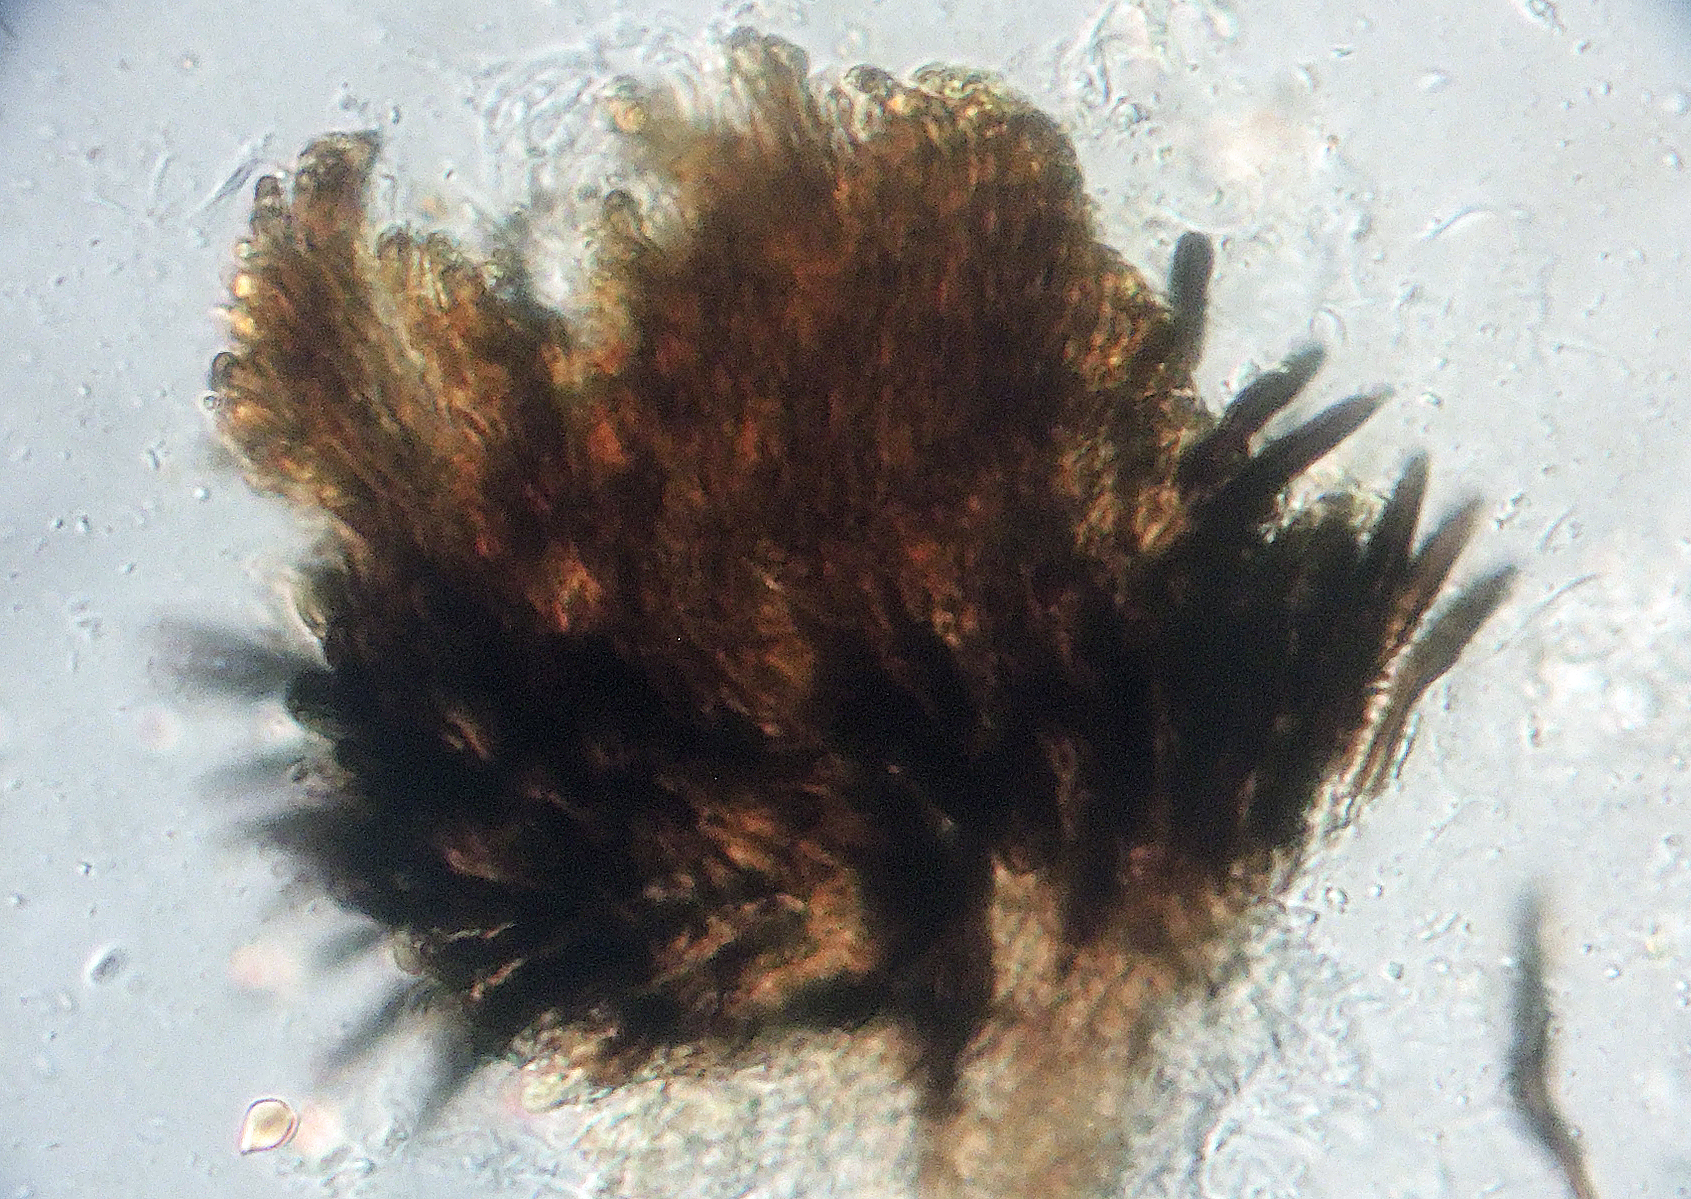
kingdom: Fungi
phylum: Ascomycota
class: Sordariomycetes
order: Coniochaetales
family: Coniochaetaceae
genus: Coniochaeta
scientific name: Coniochaeta vagans
